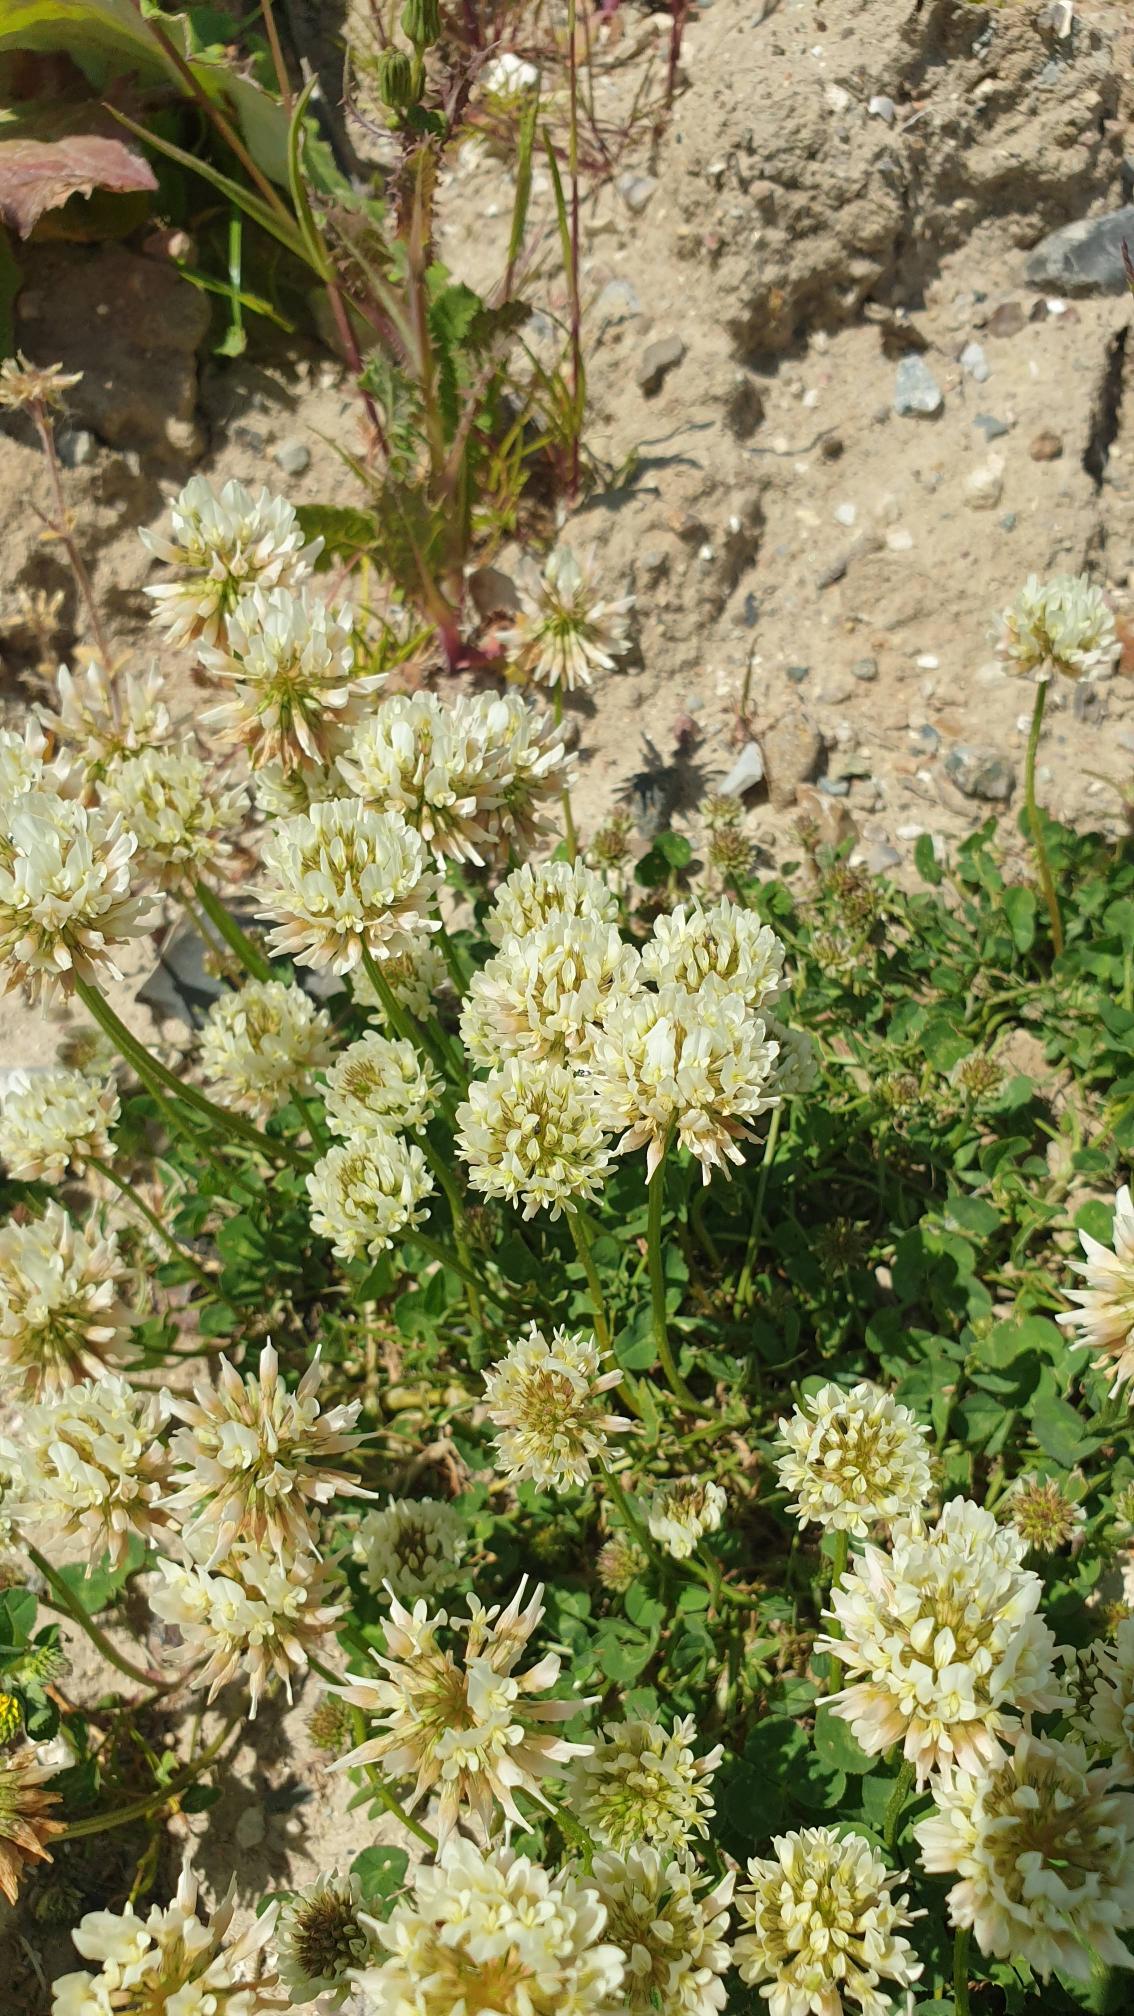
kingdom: Plantae
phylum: Tracheophyta
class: Magnoliopsida
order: Fabales
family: Fabaceae
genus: Trifolium
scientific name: Trifolium repens
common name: Hvid-kløver
